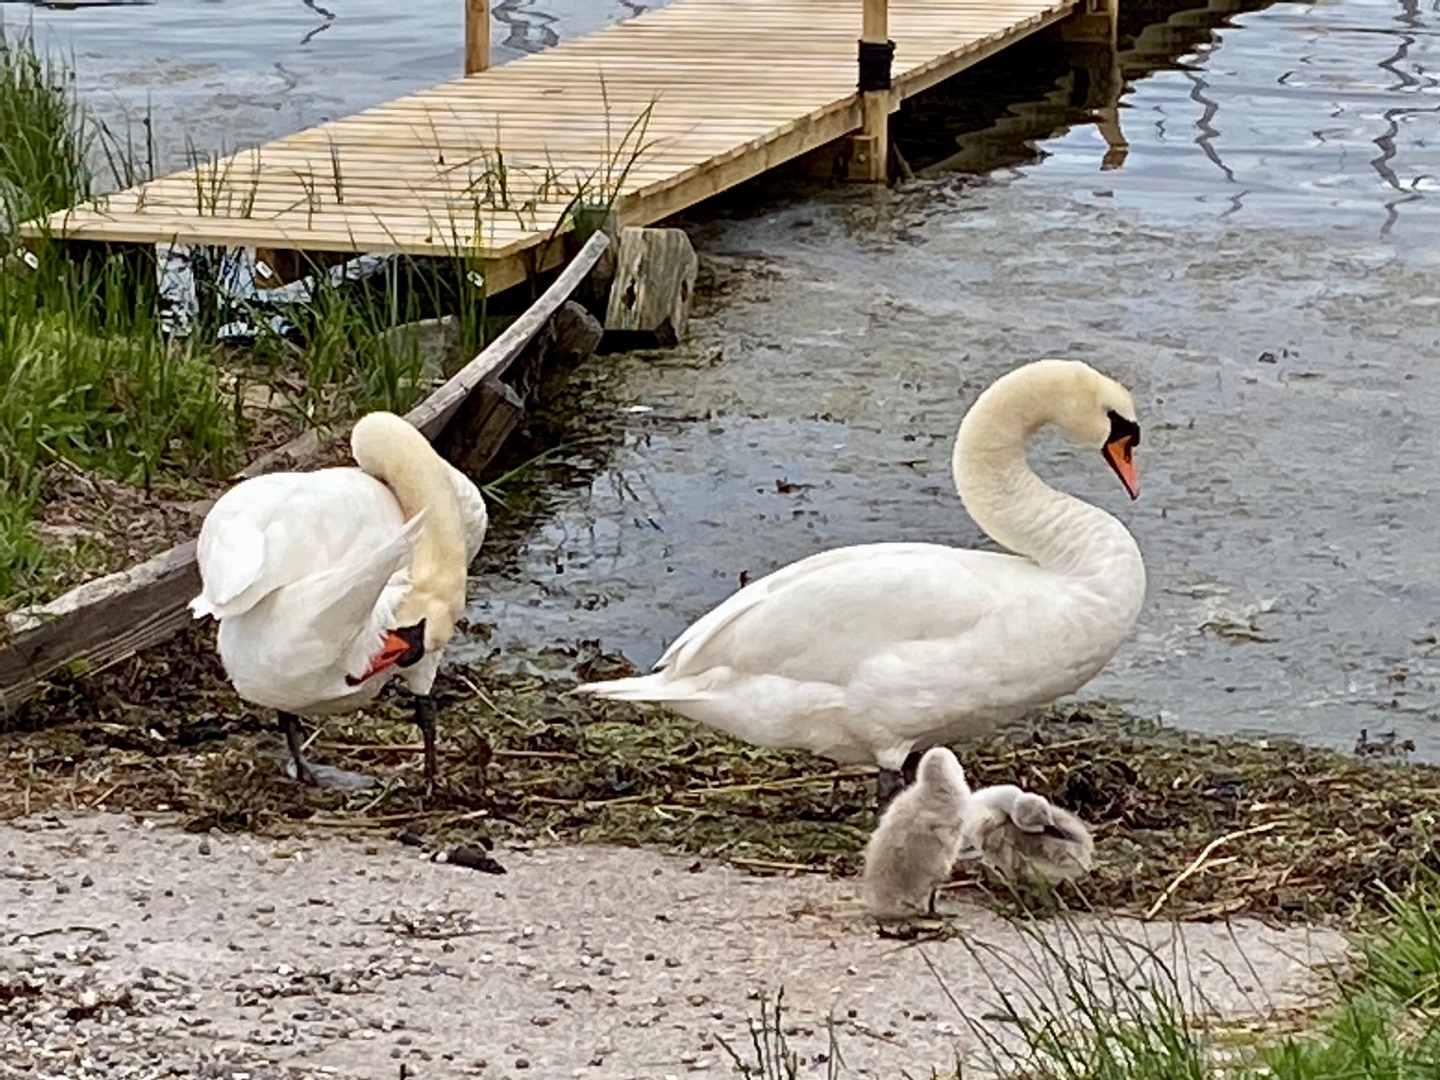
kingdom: Animalia
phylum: Chordata
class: Aves
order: Anseriformes
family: Anatidae
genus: Cygnus
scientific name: Cygnus olor
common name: Knopsvane
